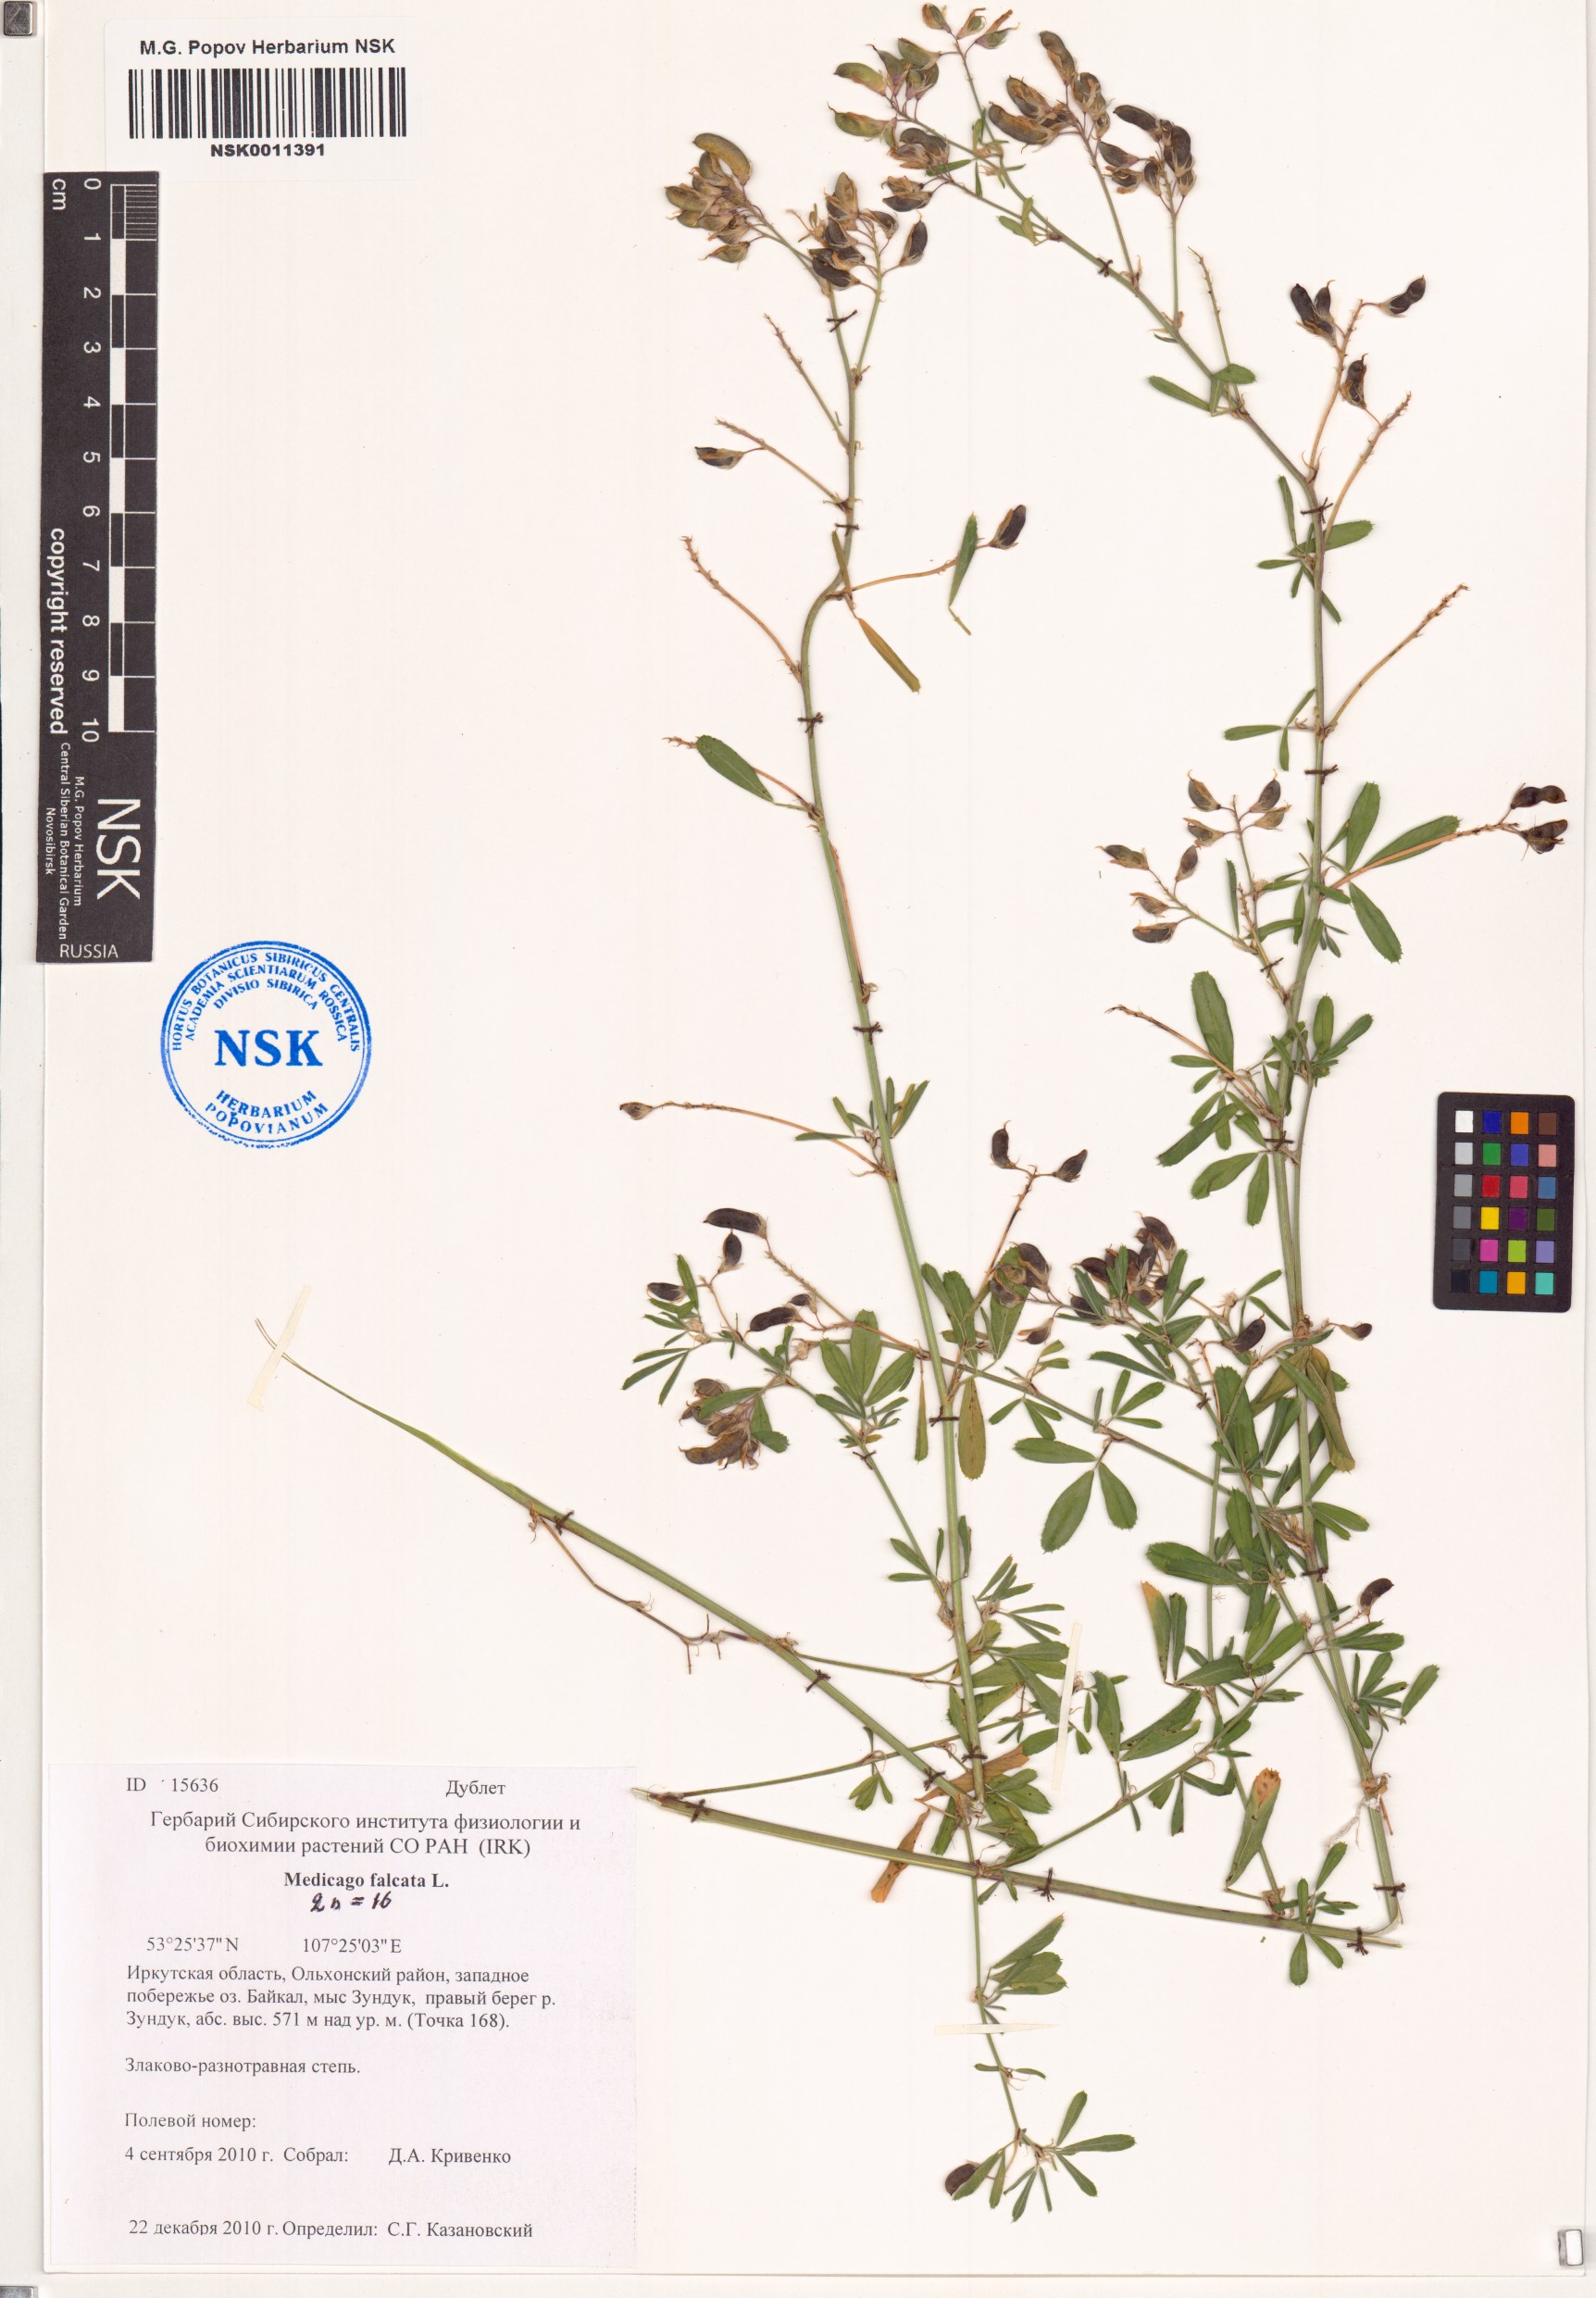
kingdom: Plantae
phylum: Tracheophyta
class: Magnoliopsida
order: Fabales
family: Fabaceae
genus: Medicago
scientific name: Medicago falcata
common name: Sickle medick
